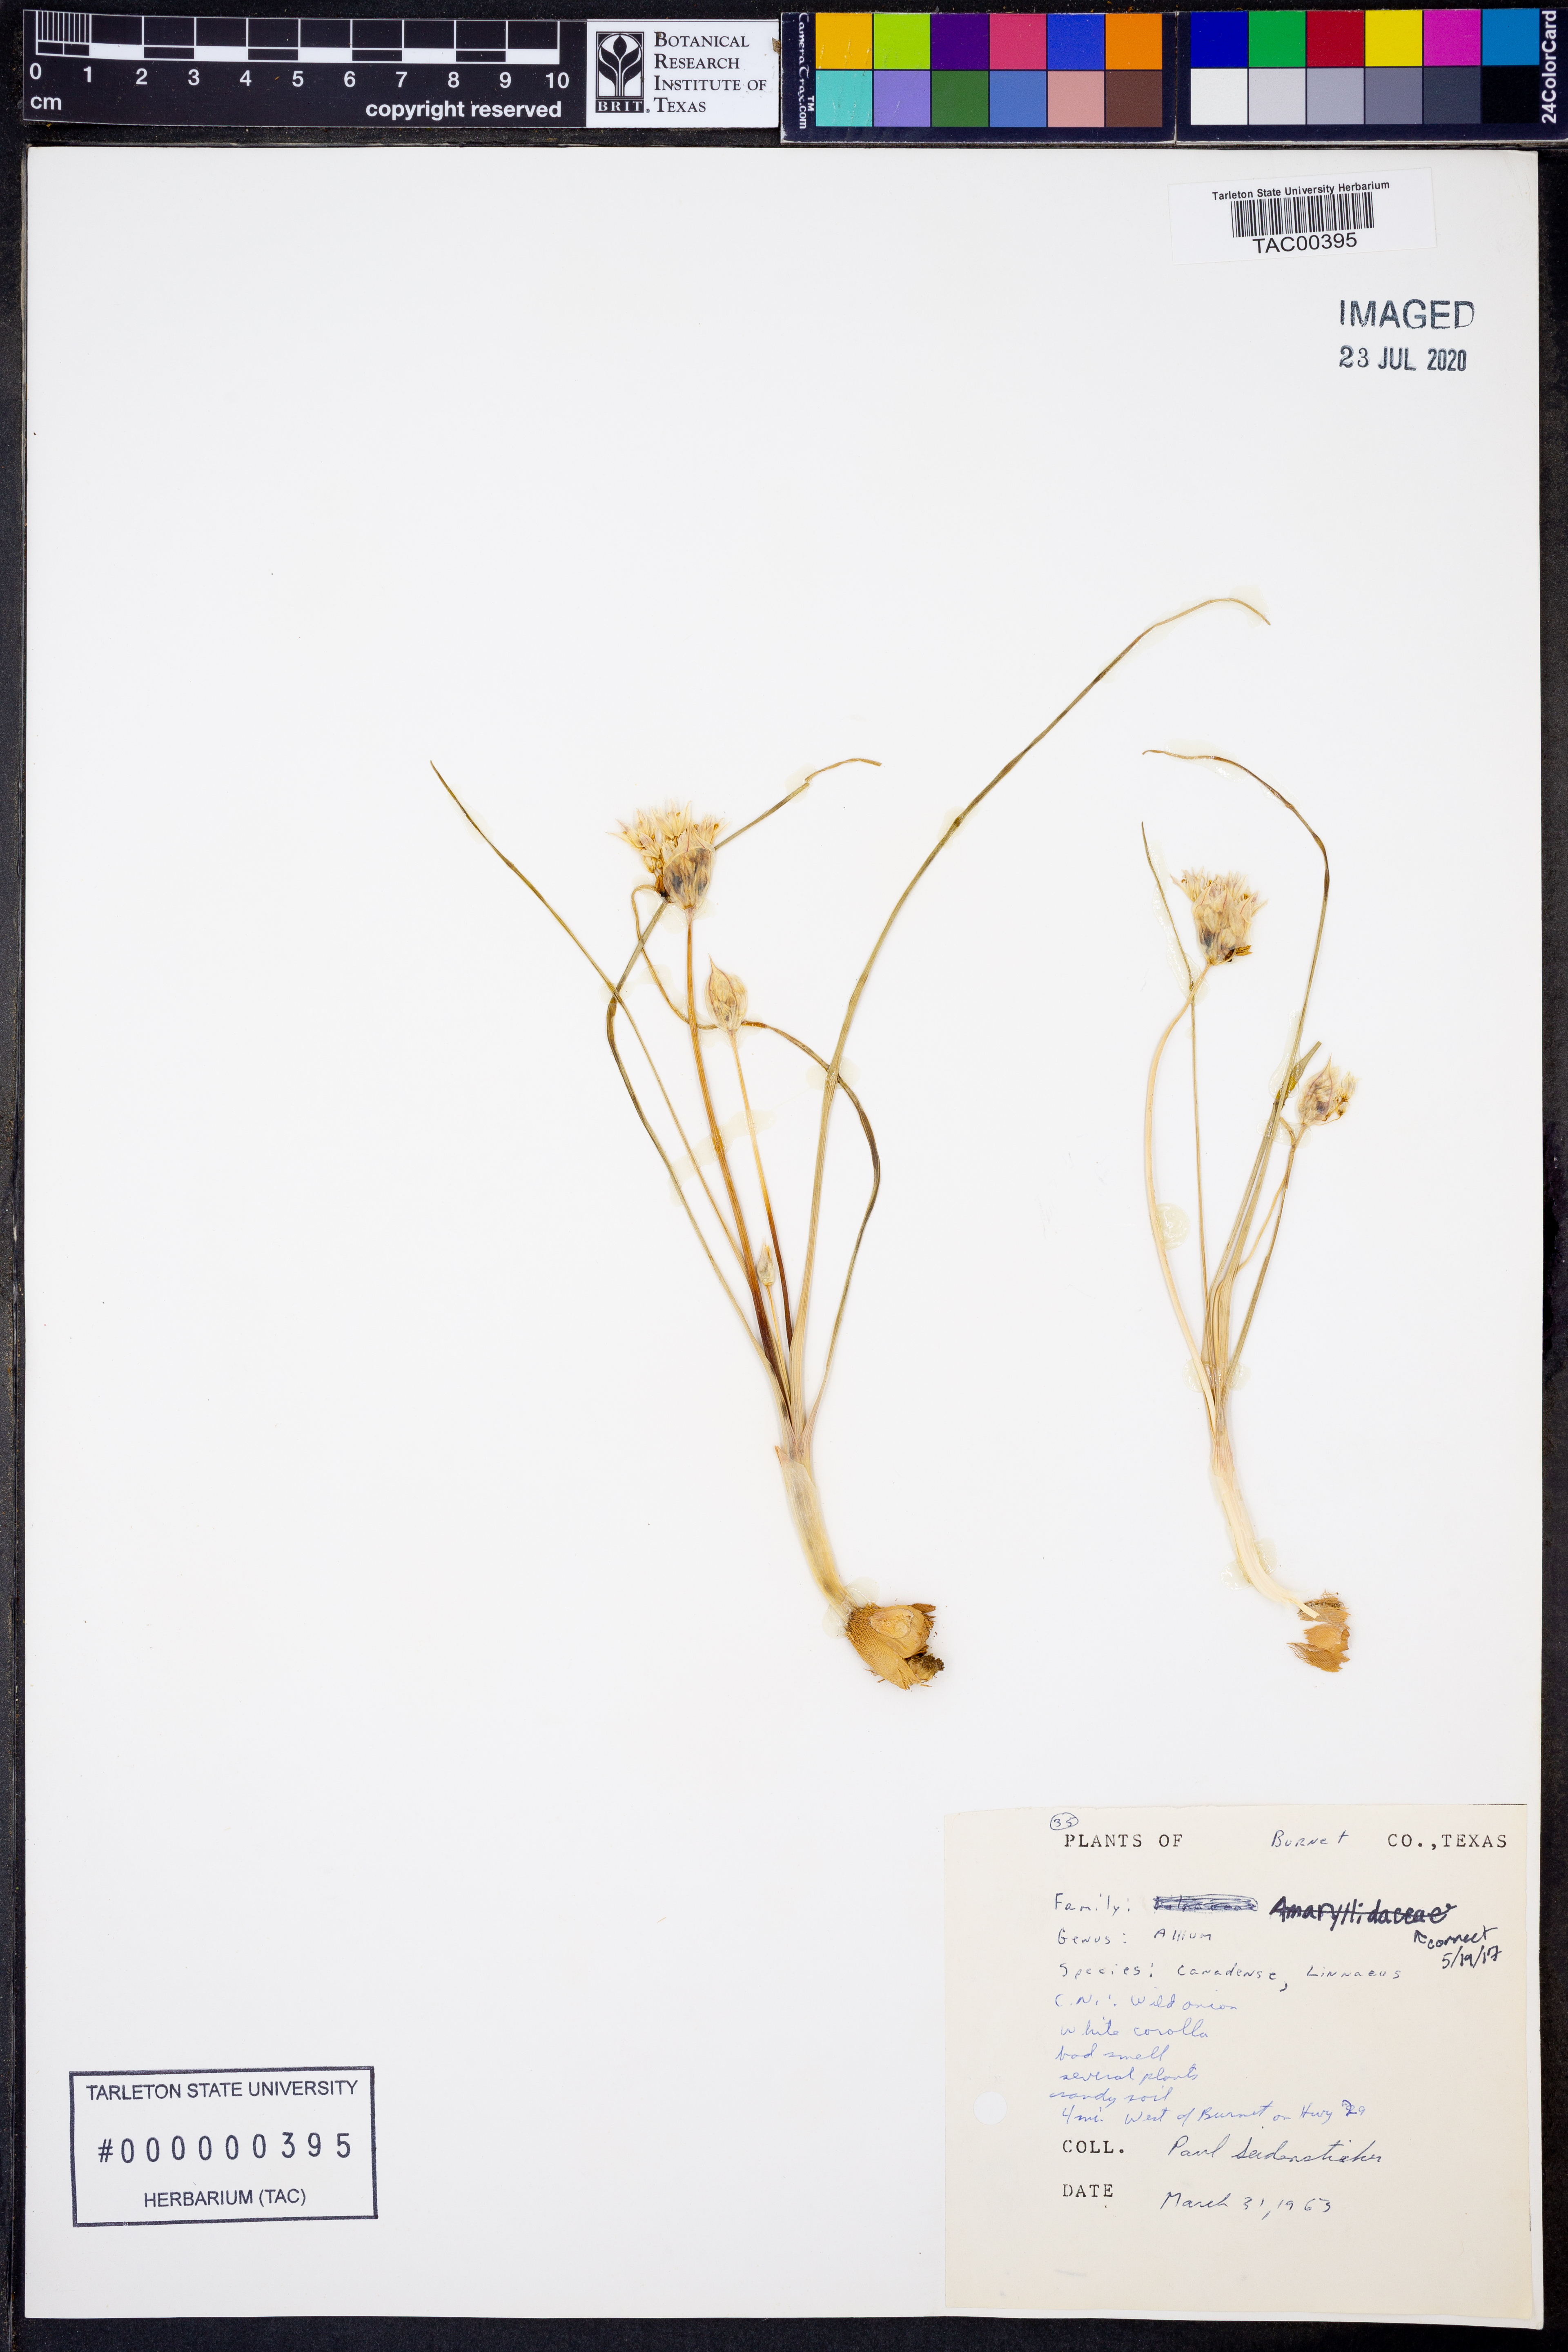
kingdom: Plantae
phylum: Tracheophyta
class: Liliopsida
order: Asparagales
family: Amaryllidaceae
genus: Allium
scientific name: Allium canadense
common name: Meadow garlic
